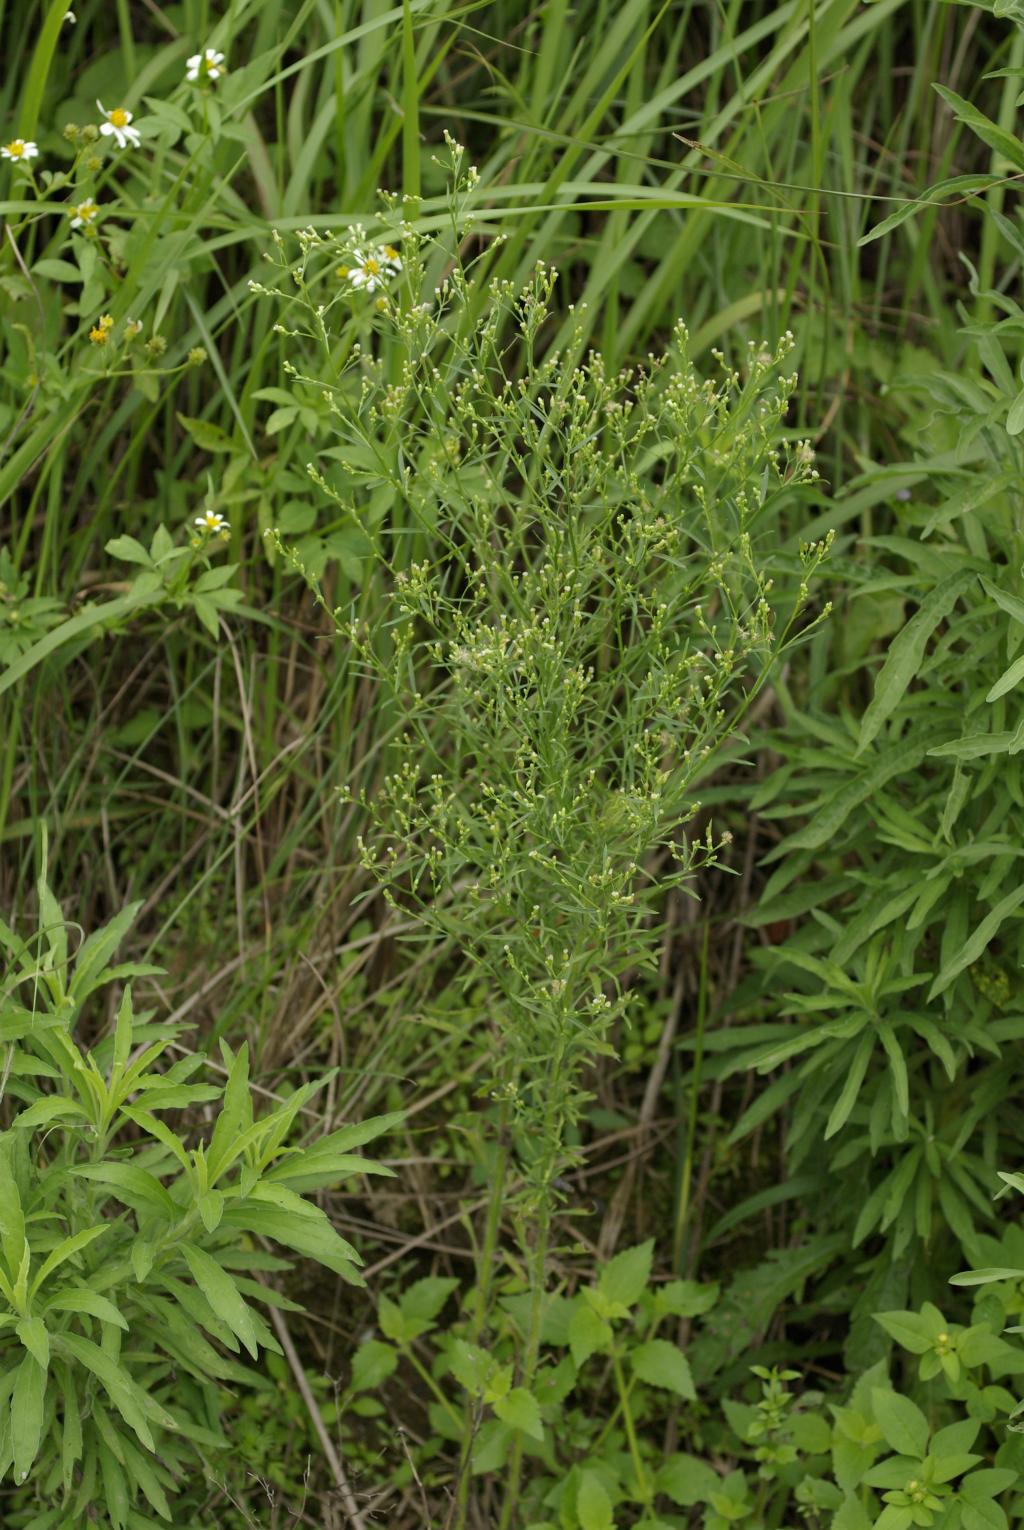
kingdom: Plantae
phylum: Tracheophyta
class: Magnoliopsida
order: Asterales
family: Asteraceae
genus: Erigeron
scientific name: Erigeron canadensis
